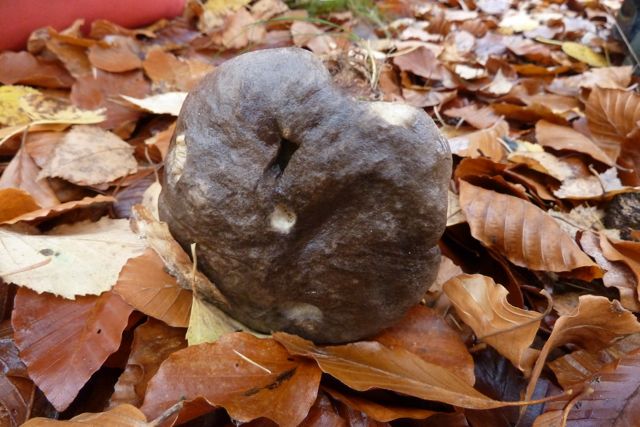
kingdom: Fungi
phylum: Basidiomycota
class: Agaricomycetes
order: Boletales
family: Boletaceae
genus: Leccinum
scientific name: Leccinum variicolor
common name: flammet skælrørhat
